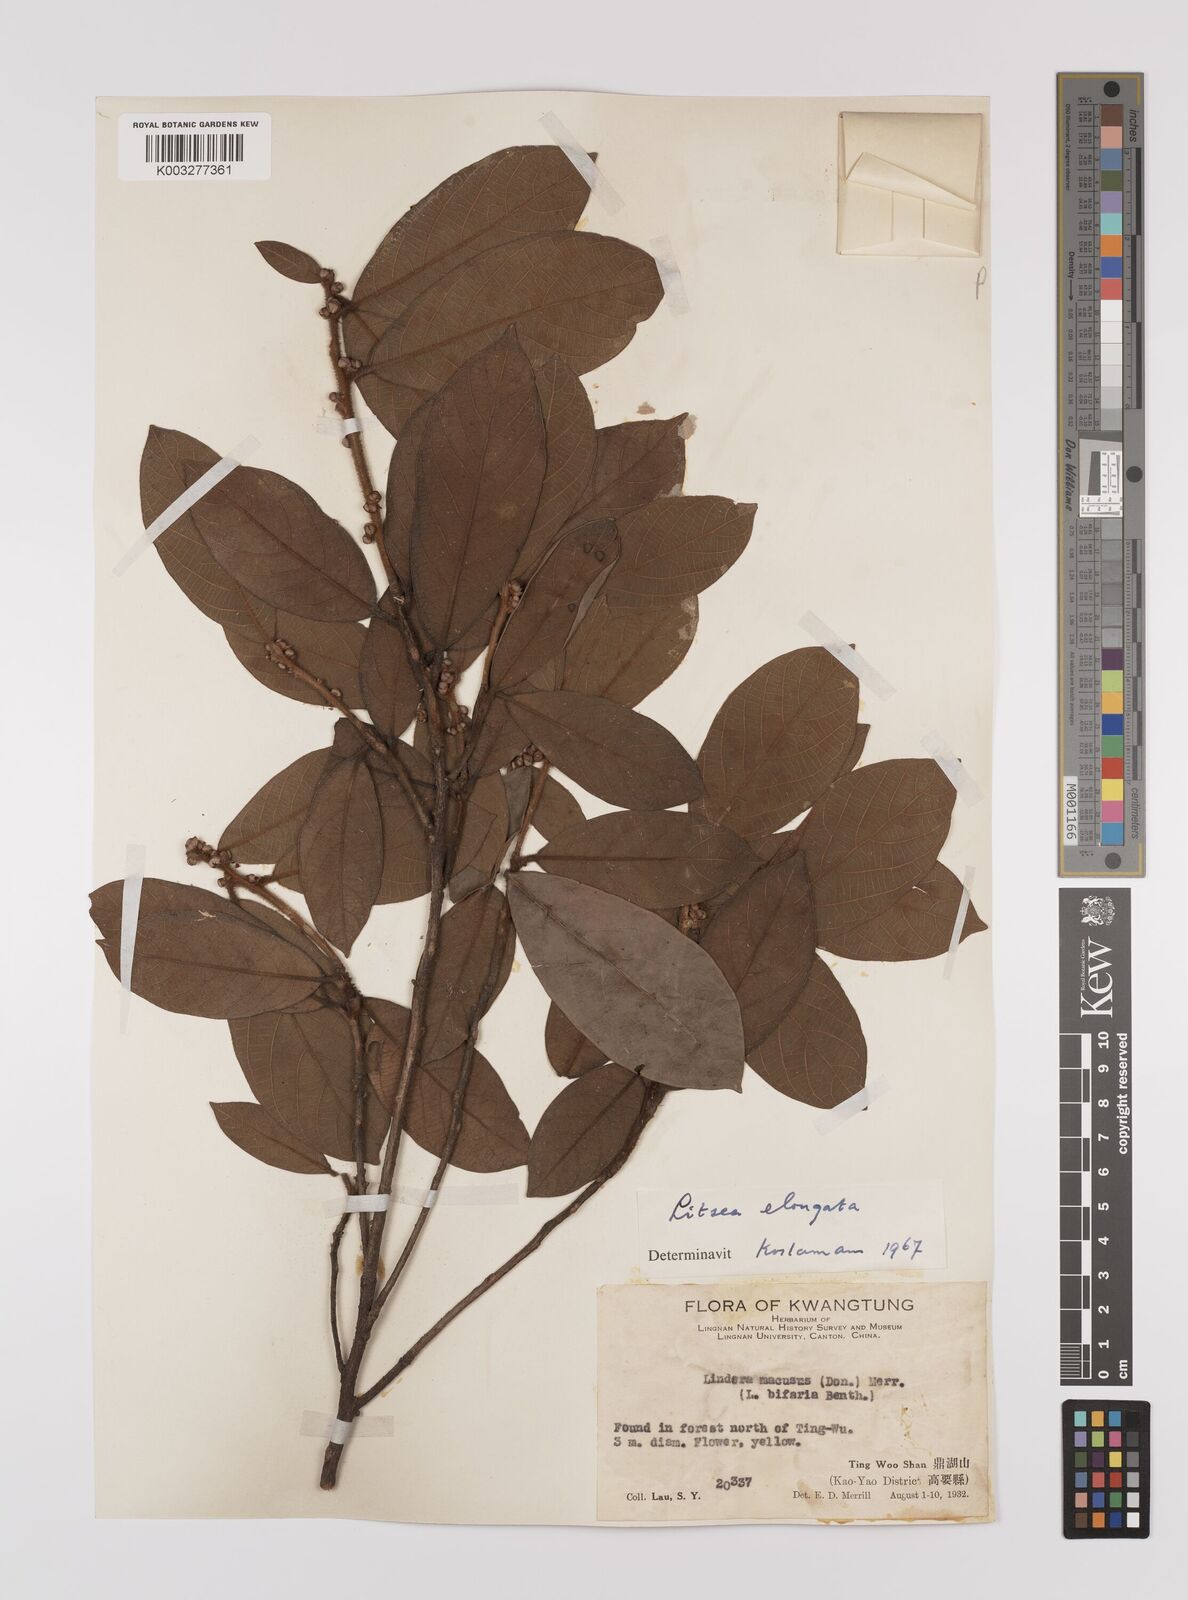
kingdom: Plantae
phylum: Tracheophyta
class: Magnoliopsida
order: Laurales
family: Lauraceae
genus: Litsea
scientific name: Litsea elongata
